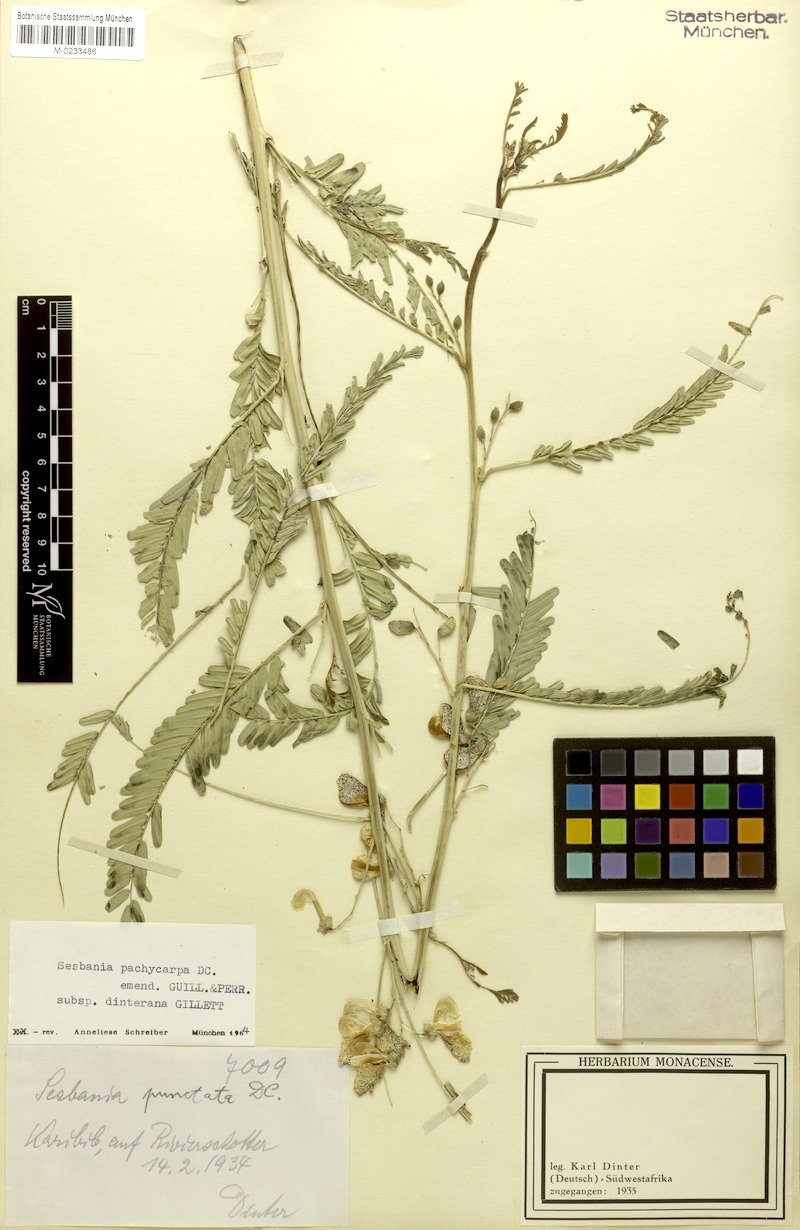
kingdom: Plantae
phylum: Tracheophyta
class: Magnoliopsida
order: Fabales
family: Fabaceae
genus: Sesbania
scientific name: Sesbania pachycarpa
